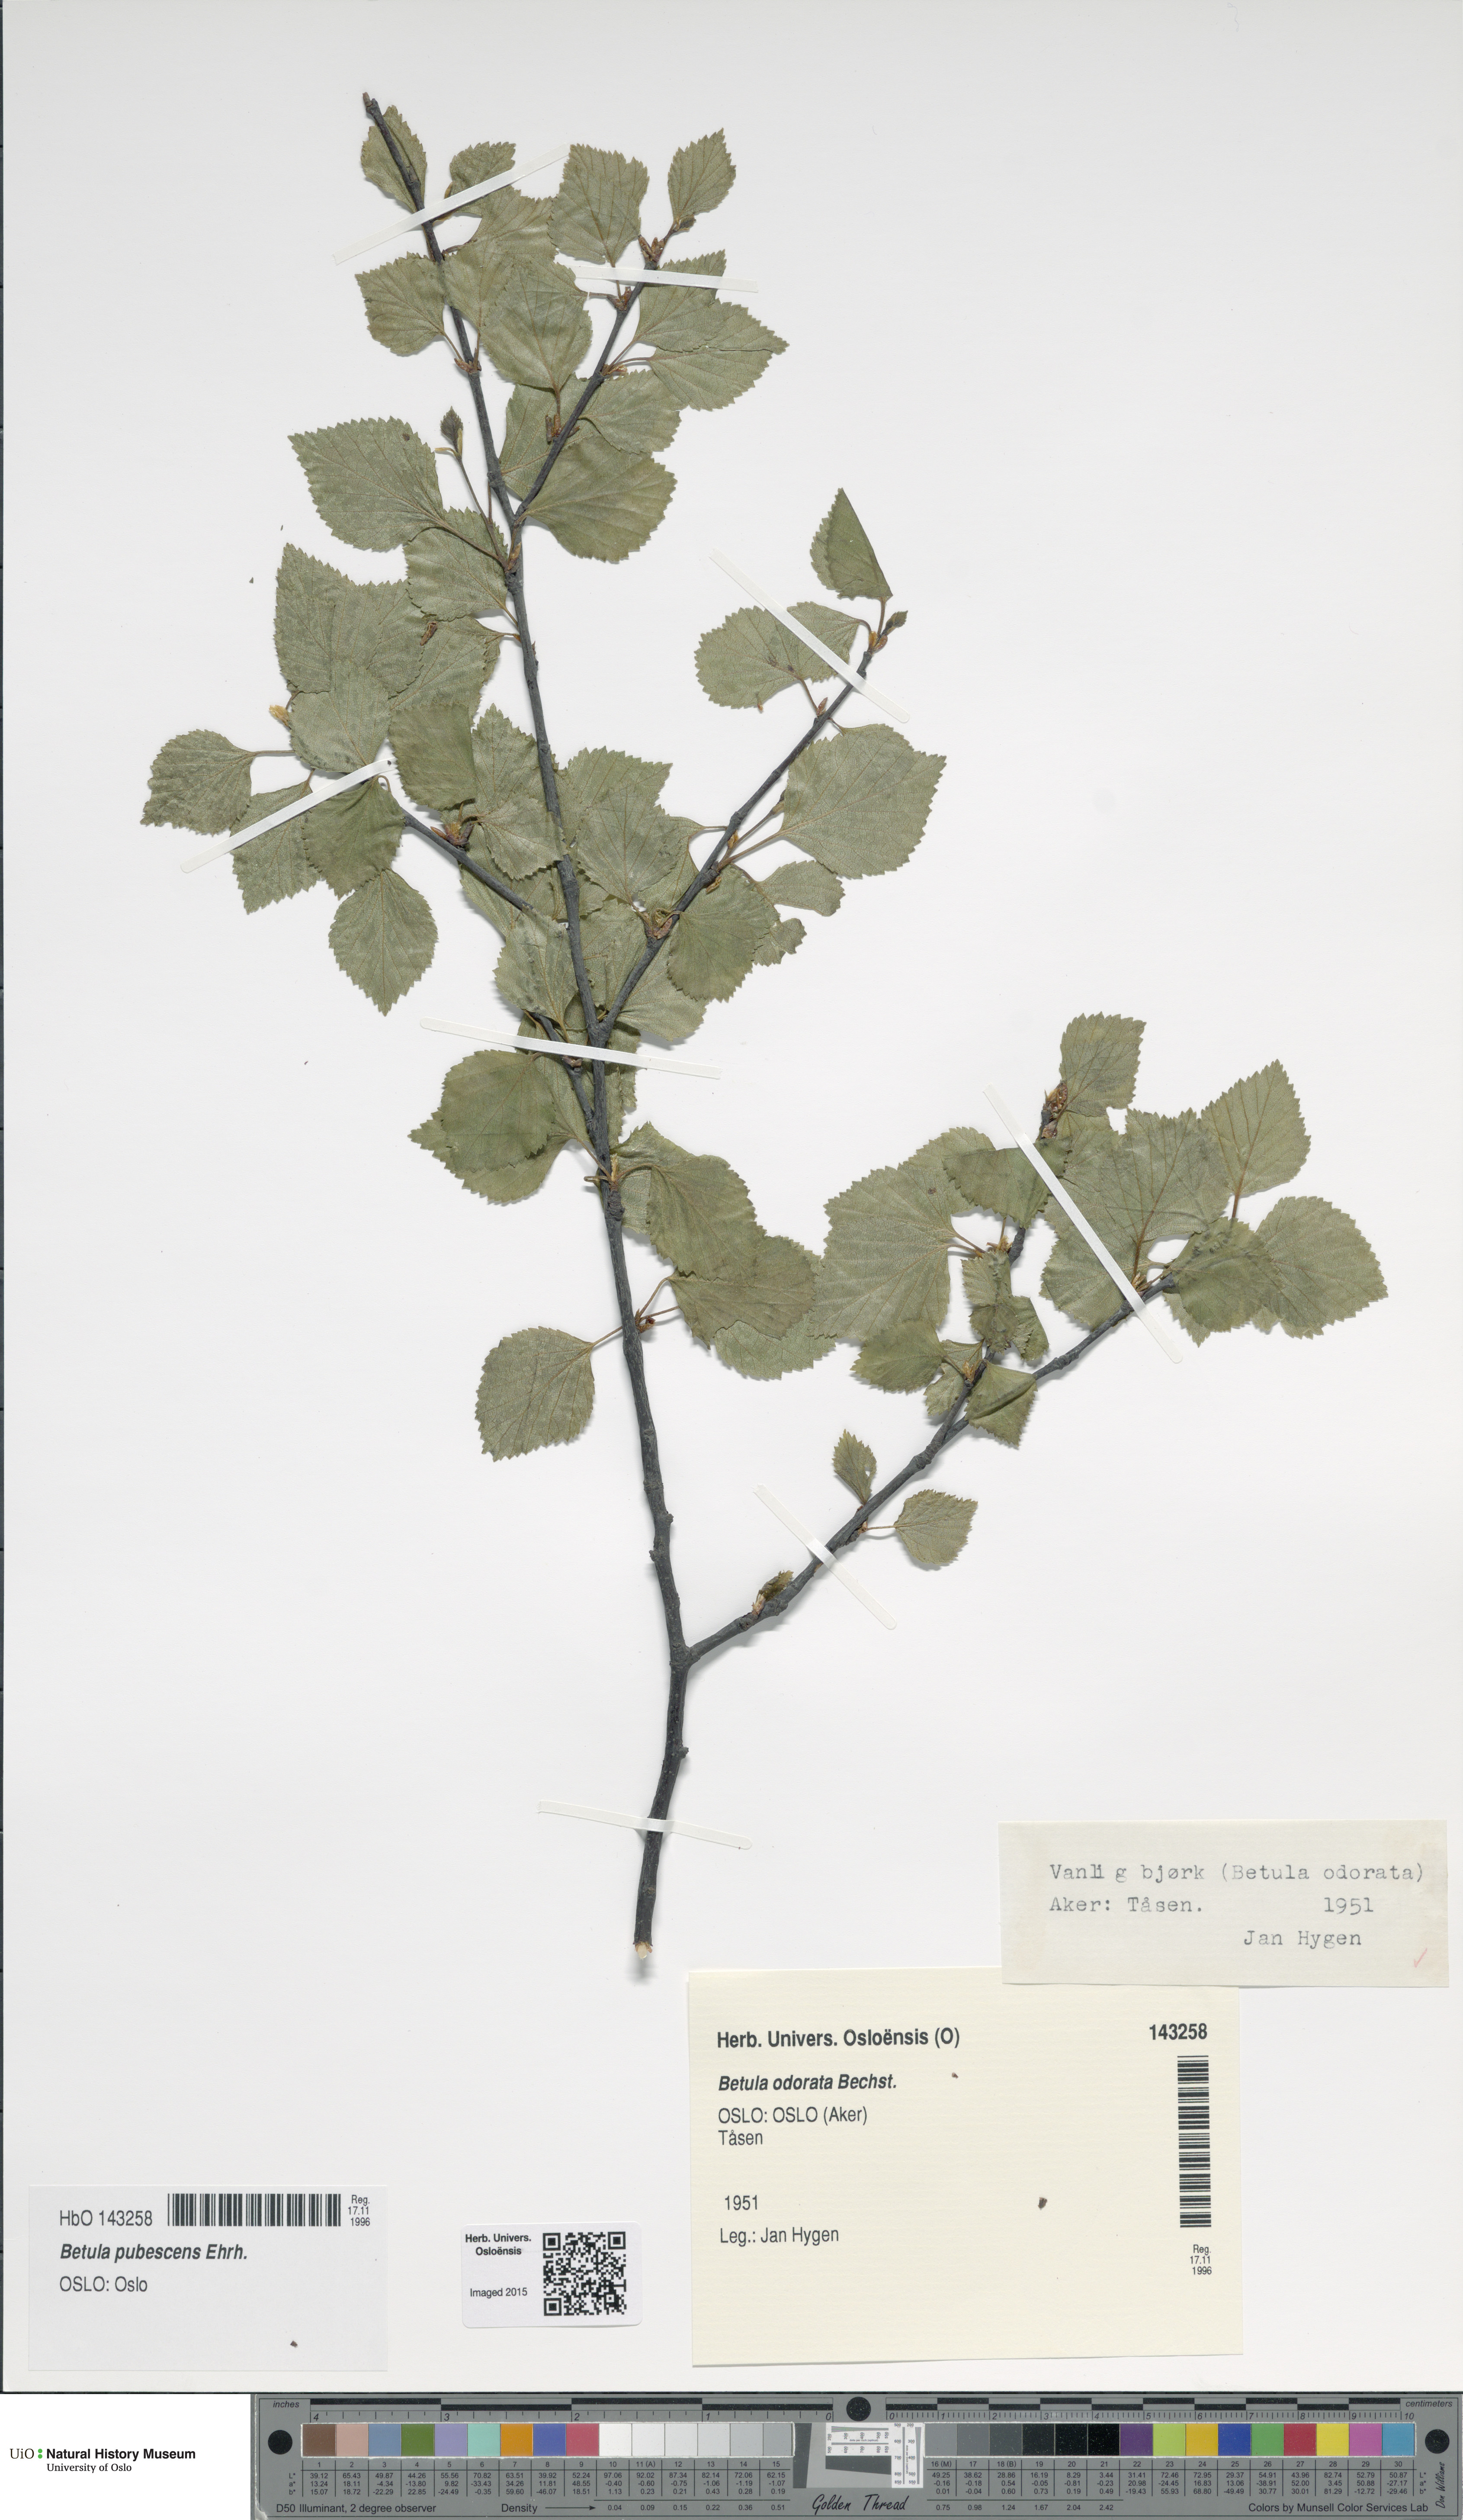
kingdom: Plantae
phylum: Tracheophyta
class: Magnoliopsida
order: Fagales
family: Betulaceae
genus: Betula
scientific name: Betula pubescens
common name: Downy birch
